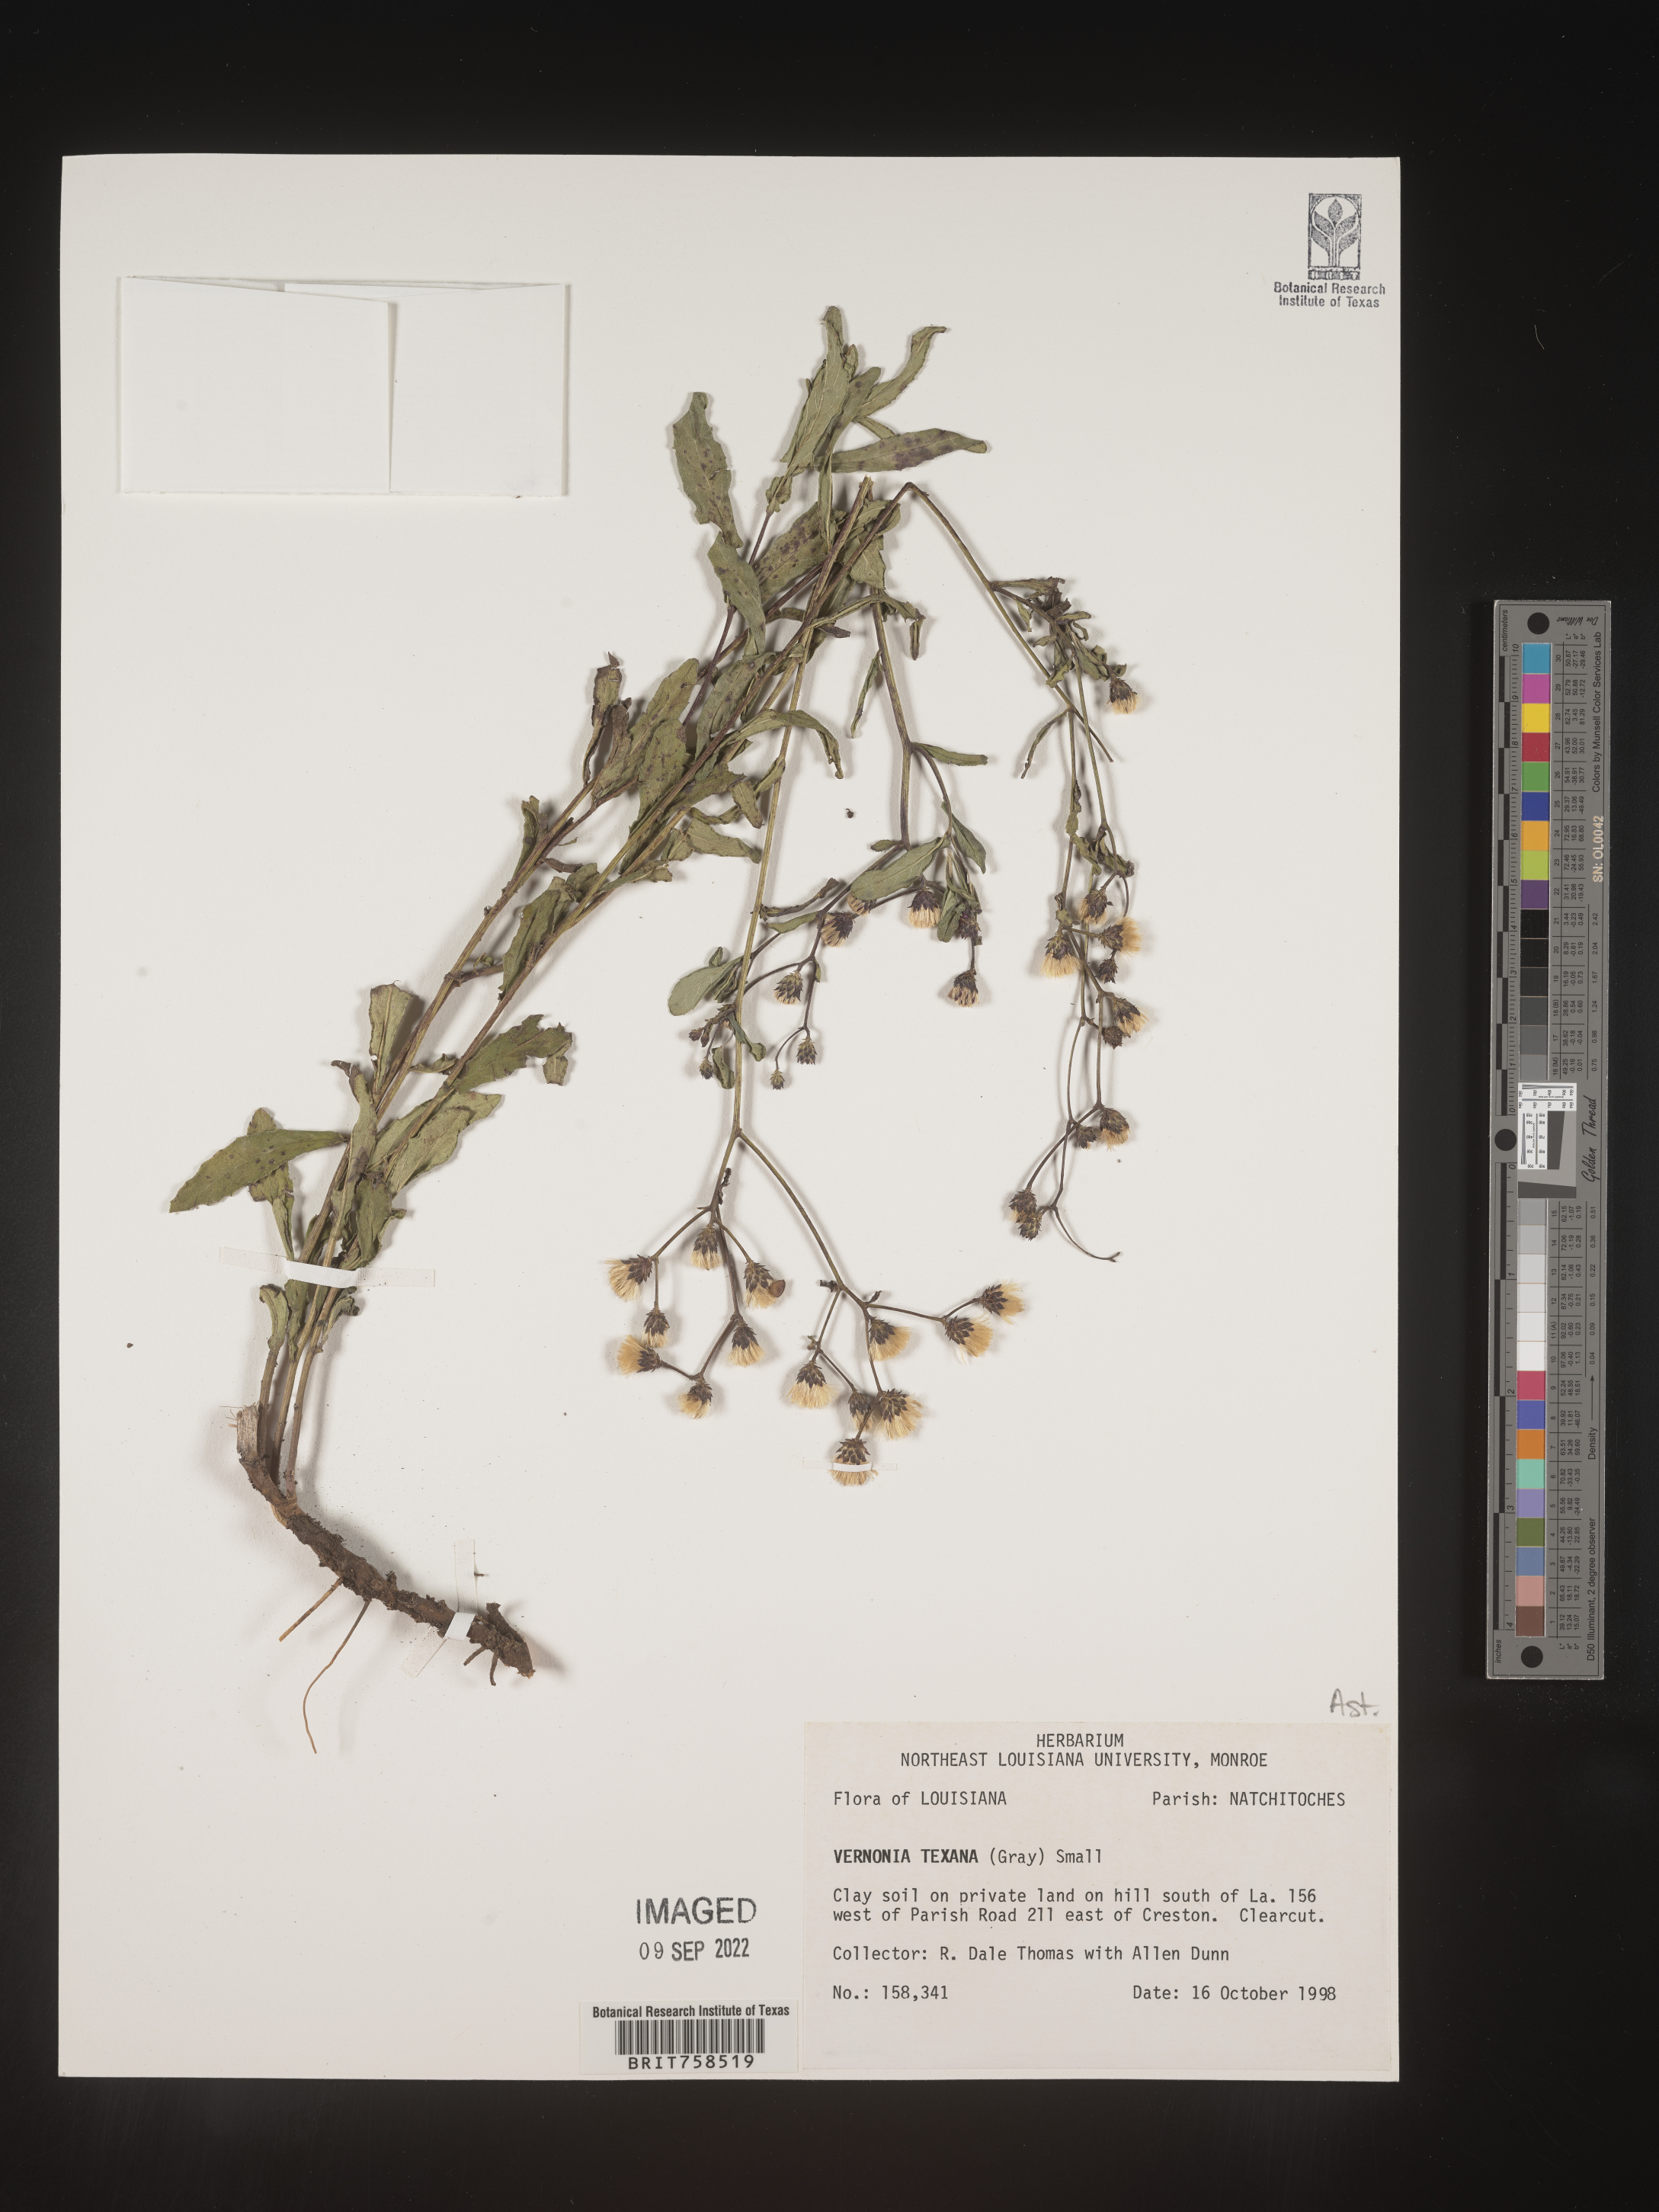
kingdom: Plantae
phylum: Tracheophyta
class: Magnoliopsida
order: Asterales
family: Asteraceae
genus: Vernonia
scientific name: Vernonia texana
